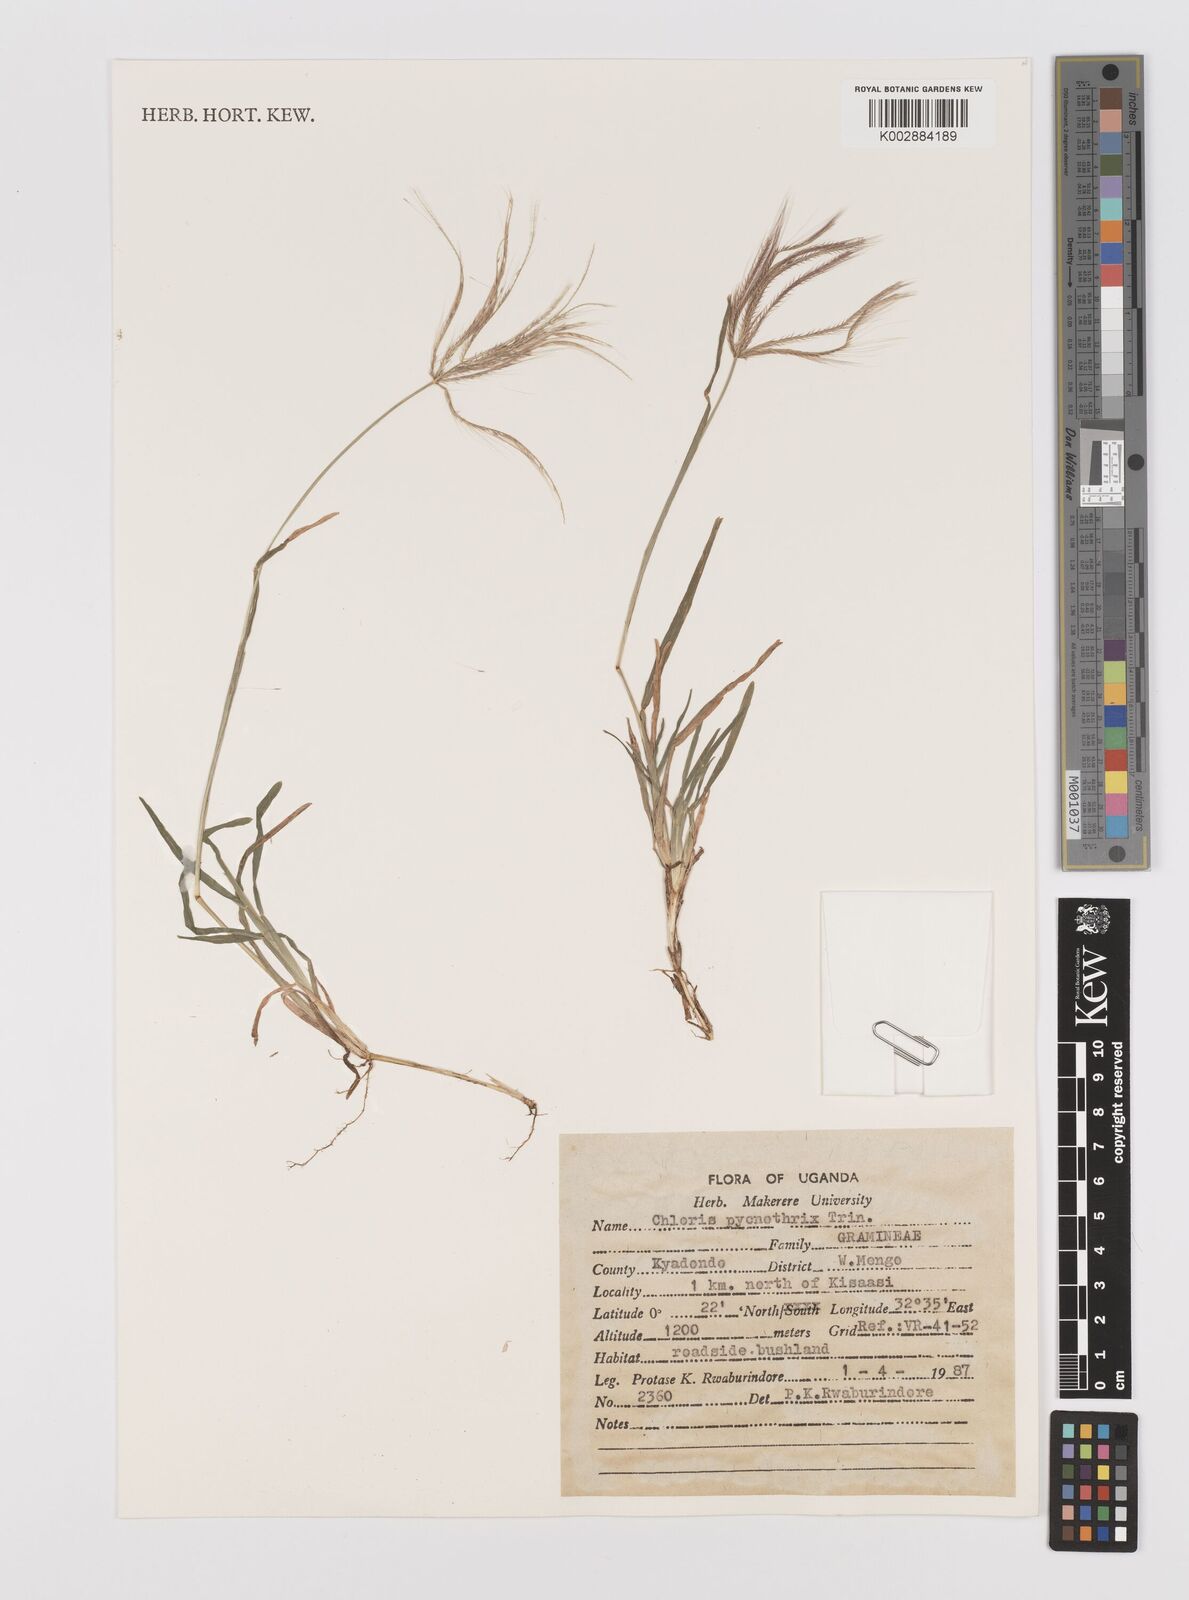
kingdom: Plantae
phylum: Tracheophyta
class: Liliopsida
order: Poales
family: Poaceae
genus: Chloris
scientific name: Chloris pycnothrix
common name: Spiderweb chloris
